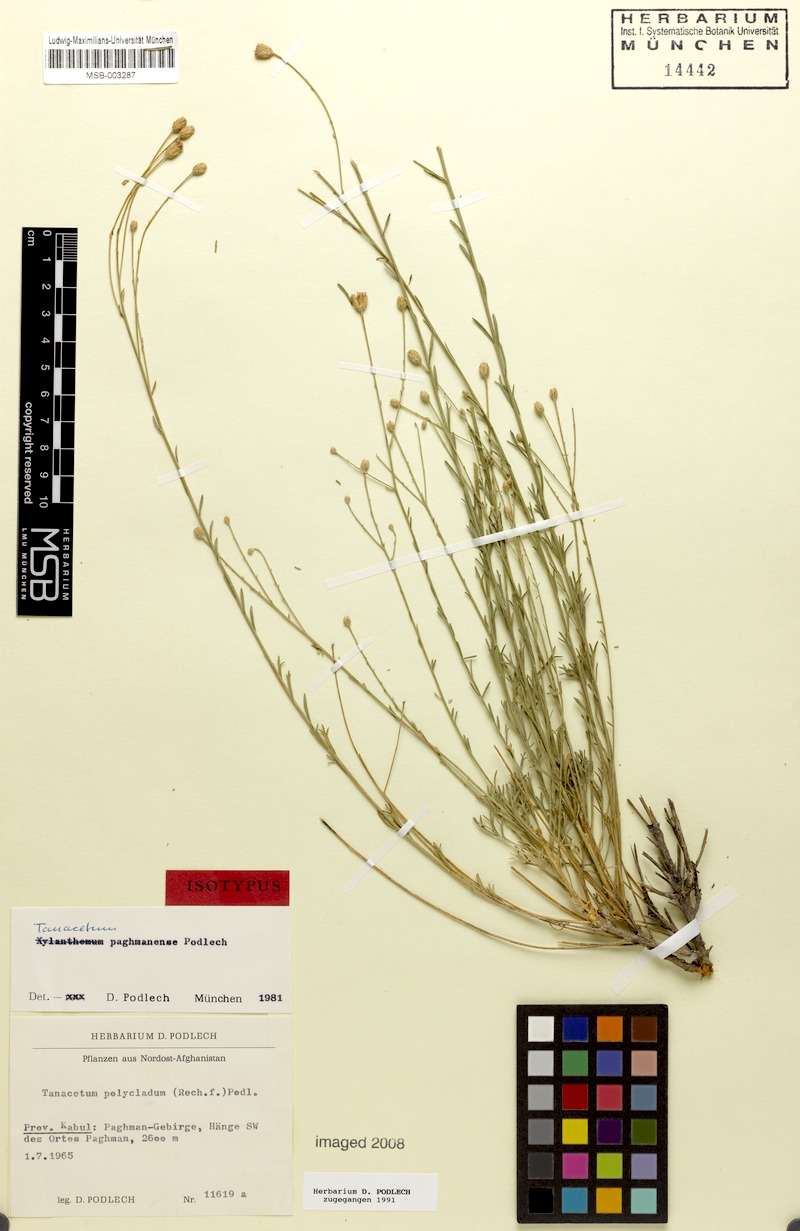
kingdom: Plantae
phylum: Tracheophyta
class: Magnoliopsida
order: Asterales
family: Asteraceae
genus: Xylanthemum
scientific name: Xylanthemum paghmanense
